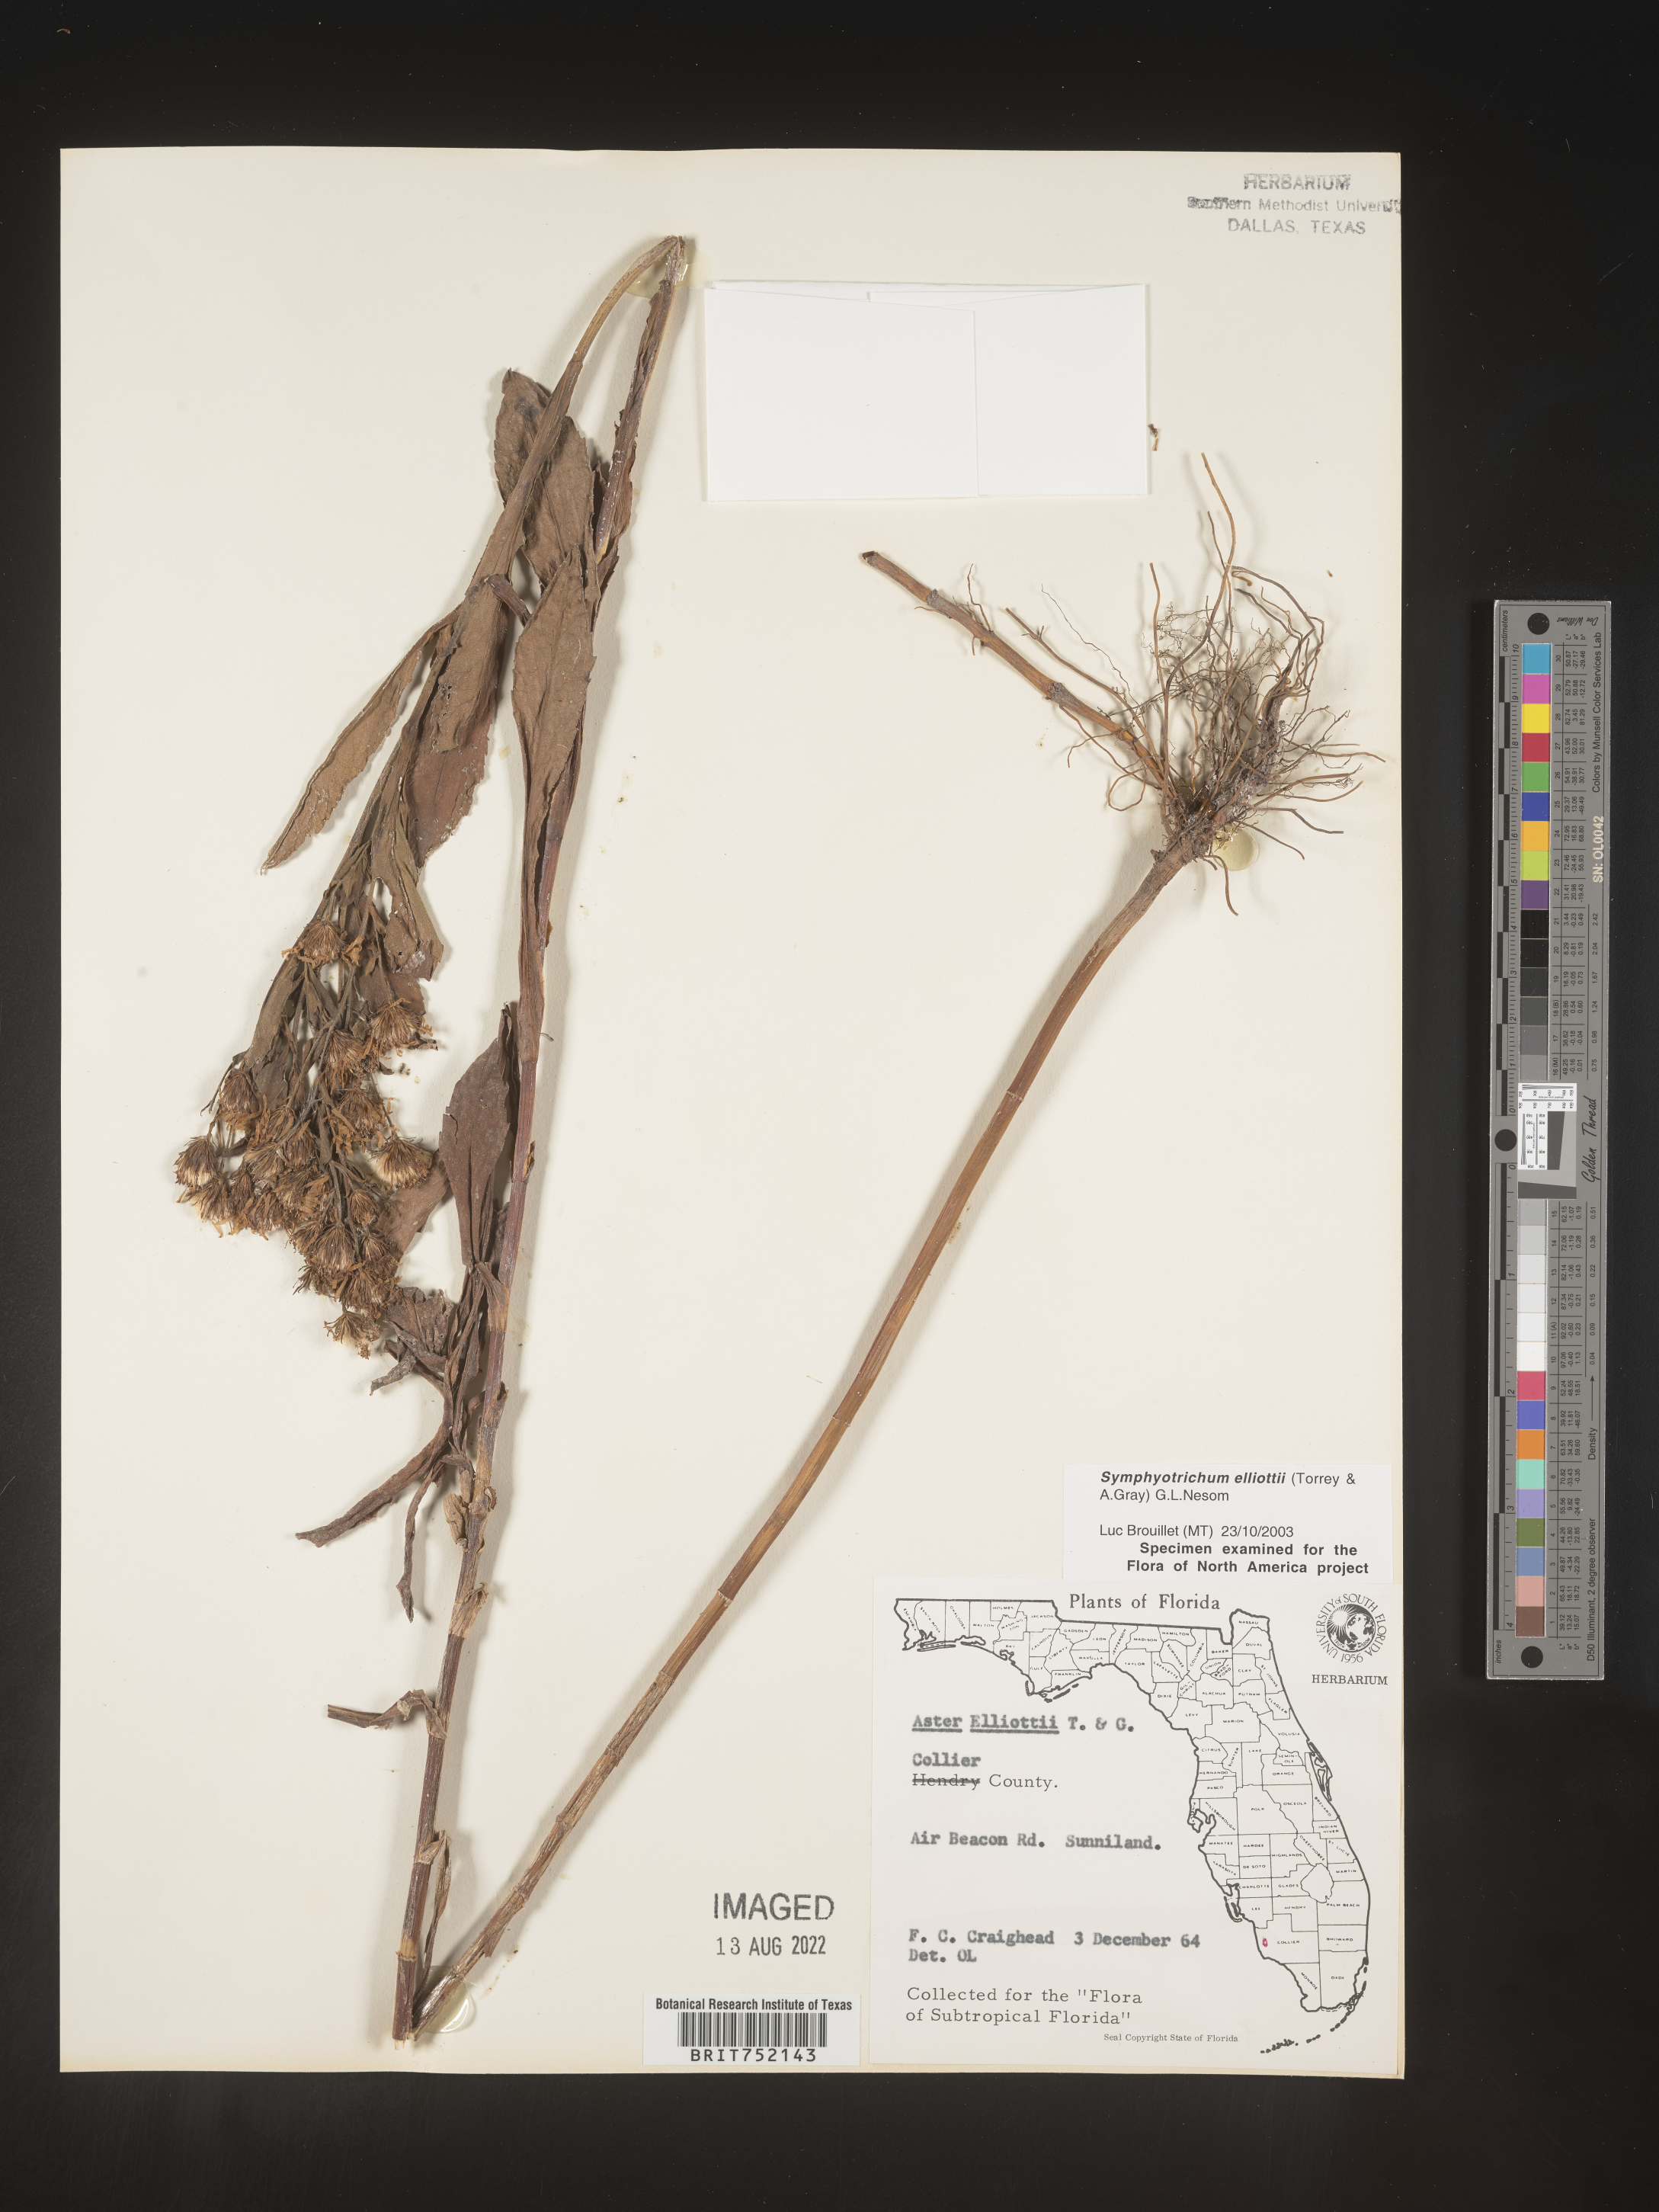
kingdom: Plantae
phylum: Tracheophyta
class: Magnoliopsida
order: Asterales
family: Asteraceae
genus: Symphyotrichum
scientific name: Symphyotrichum elliottii
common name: Southern swamp aster
